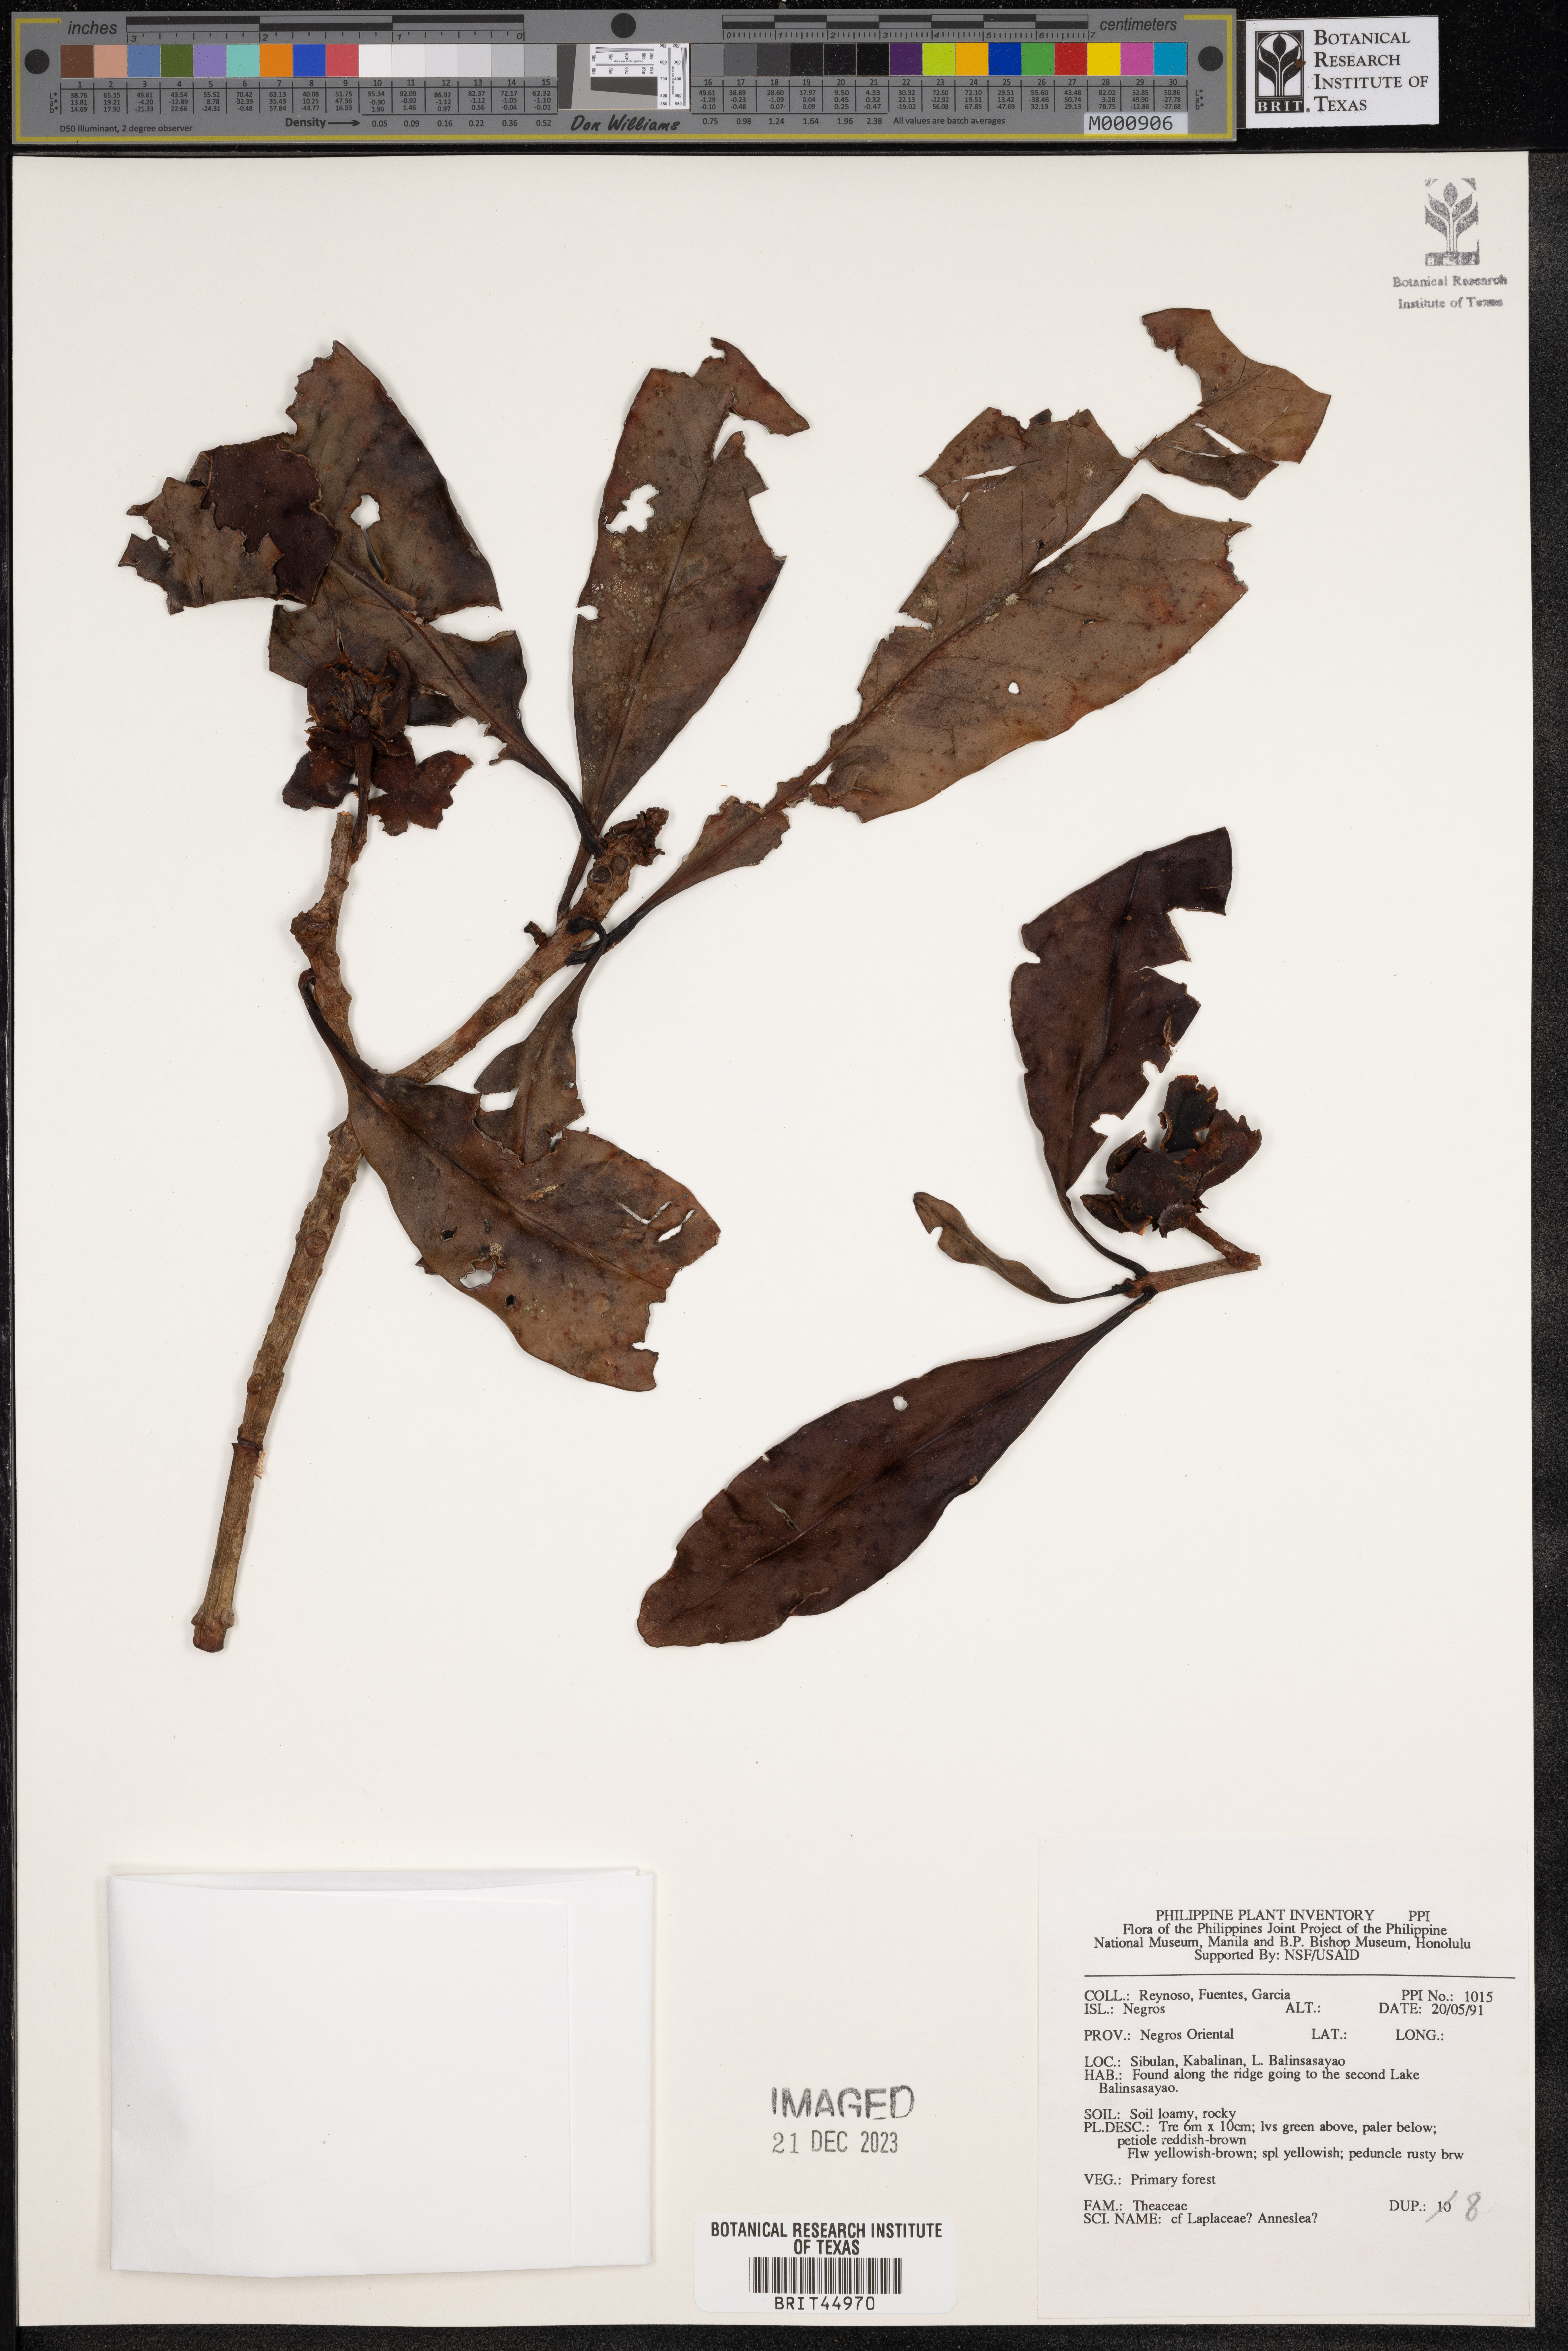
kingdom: Plantae
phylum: Tracheophyta
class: Magnoliopsida
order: Ericales
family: Theaceae
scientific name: Theaceae
